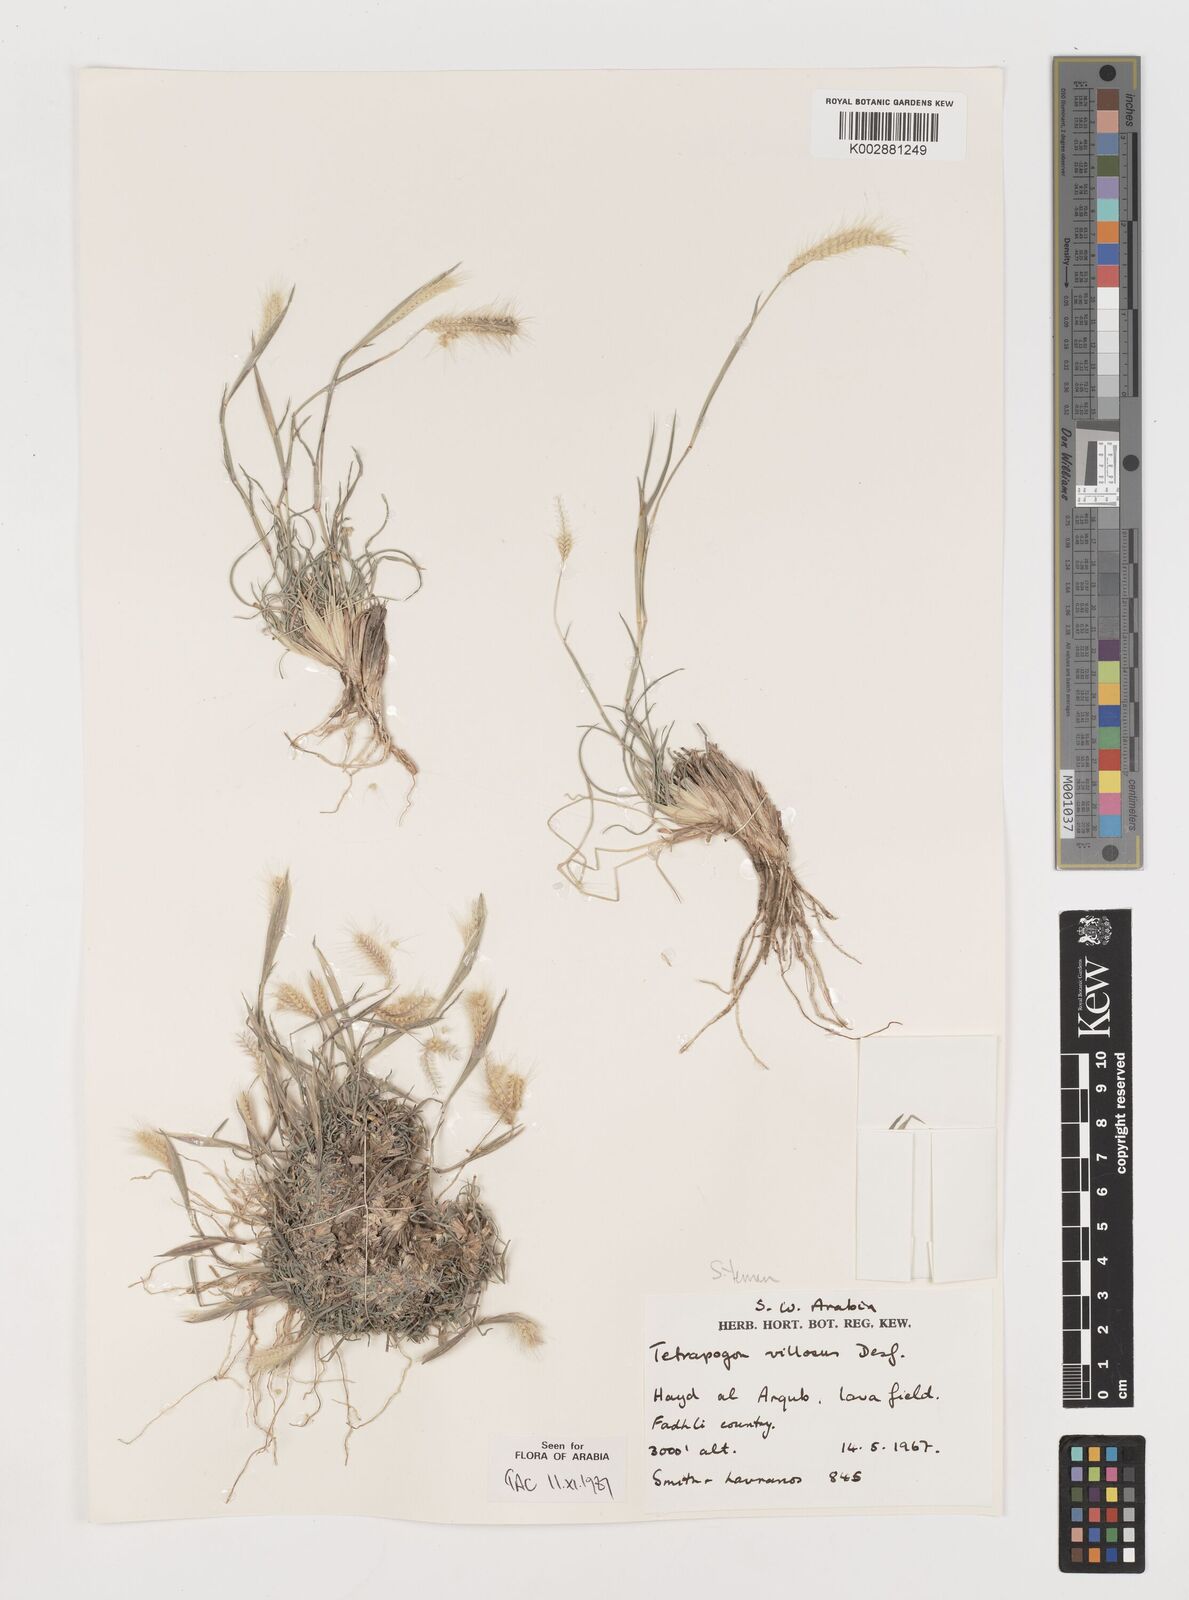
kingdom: Plantae
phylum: Tracheophyta
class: Liliopsida
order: Poales
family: Poaceae
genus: Tetrapogon
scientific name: Tetrapogon villosus
